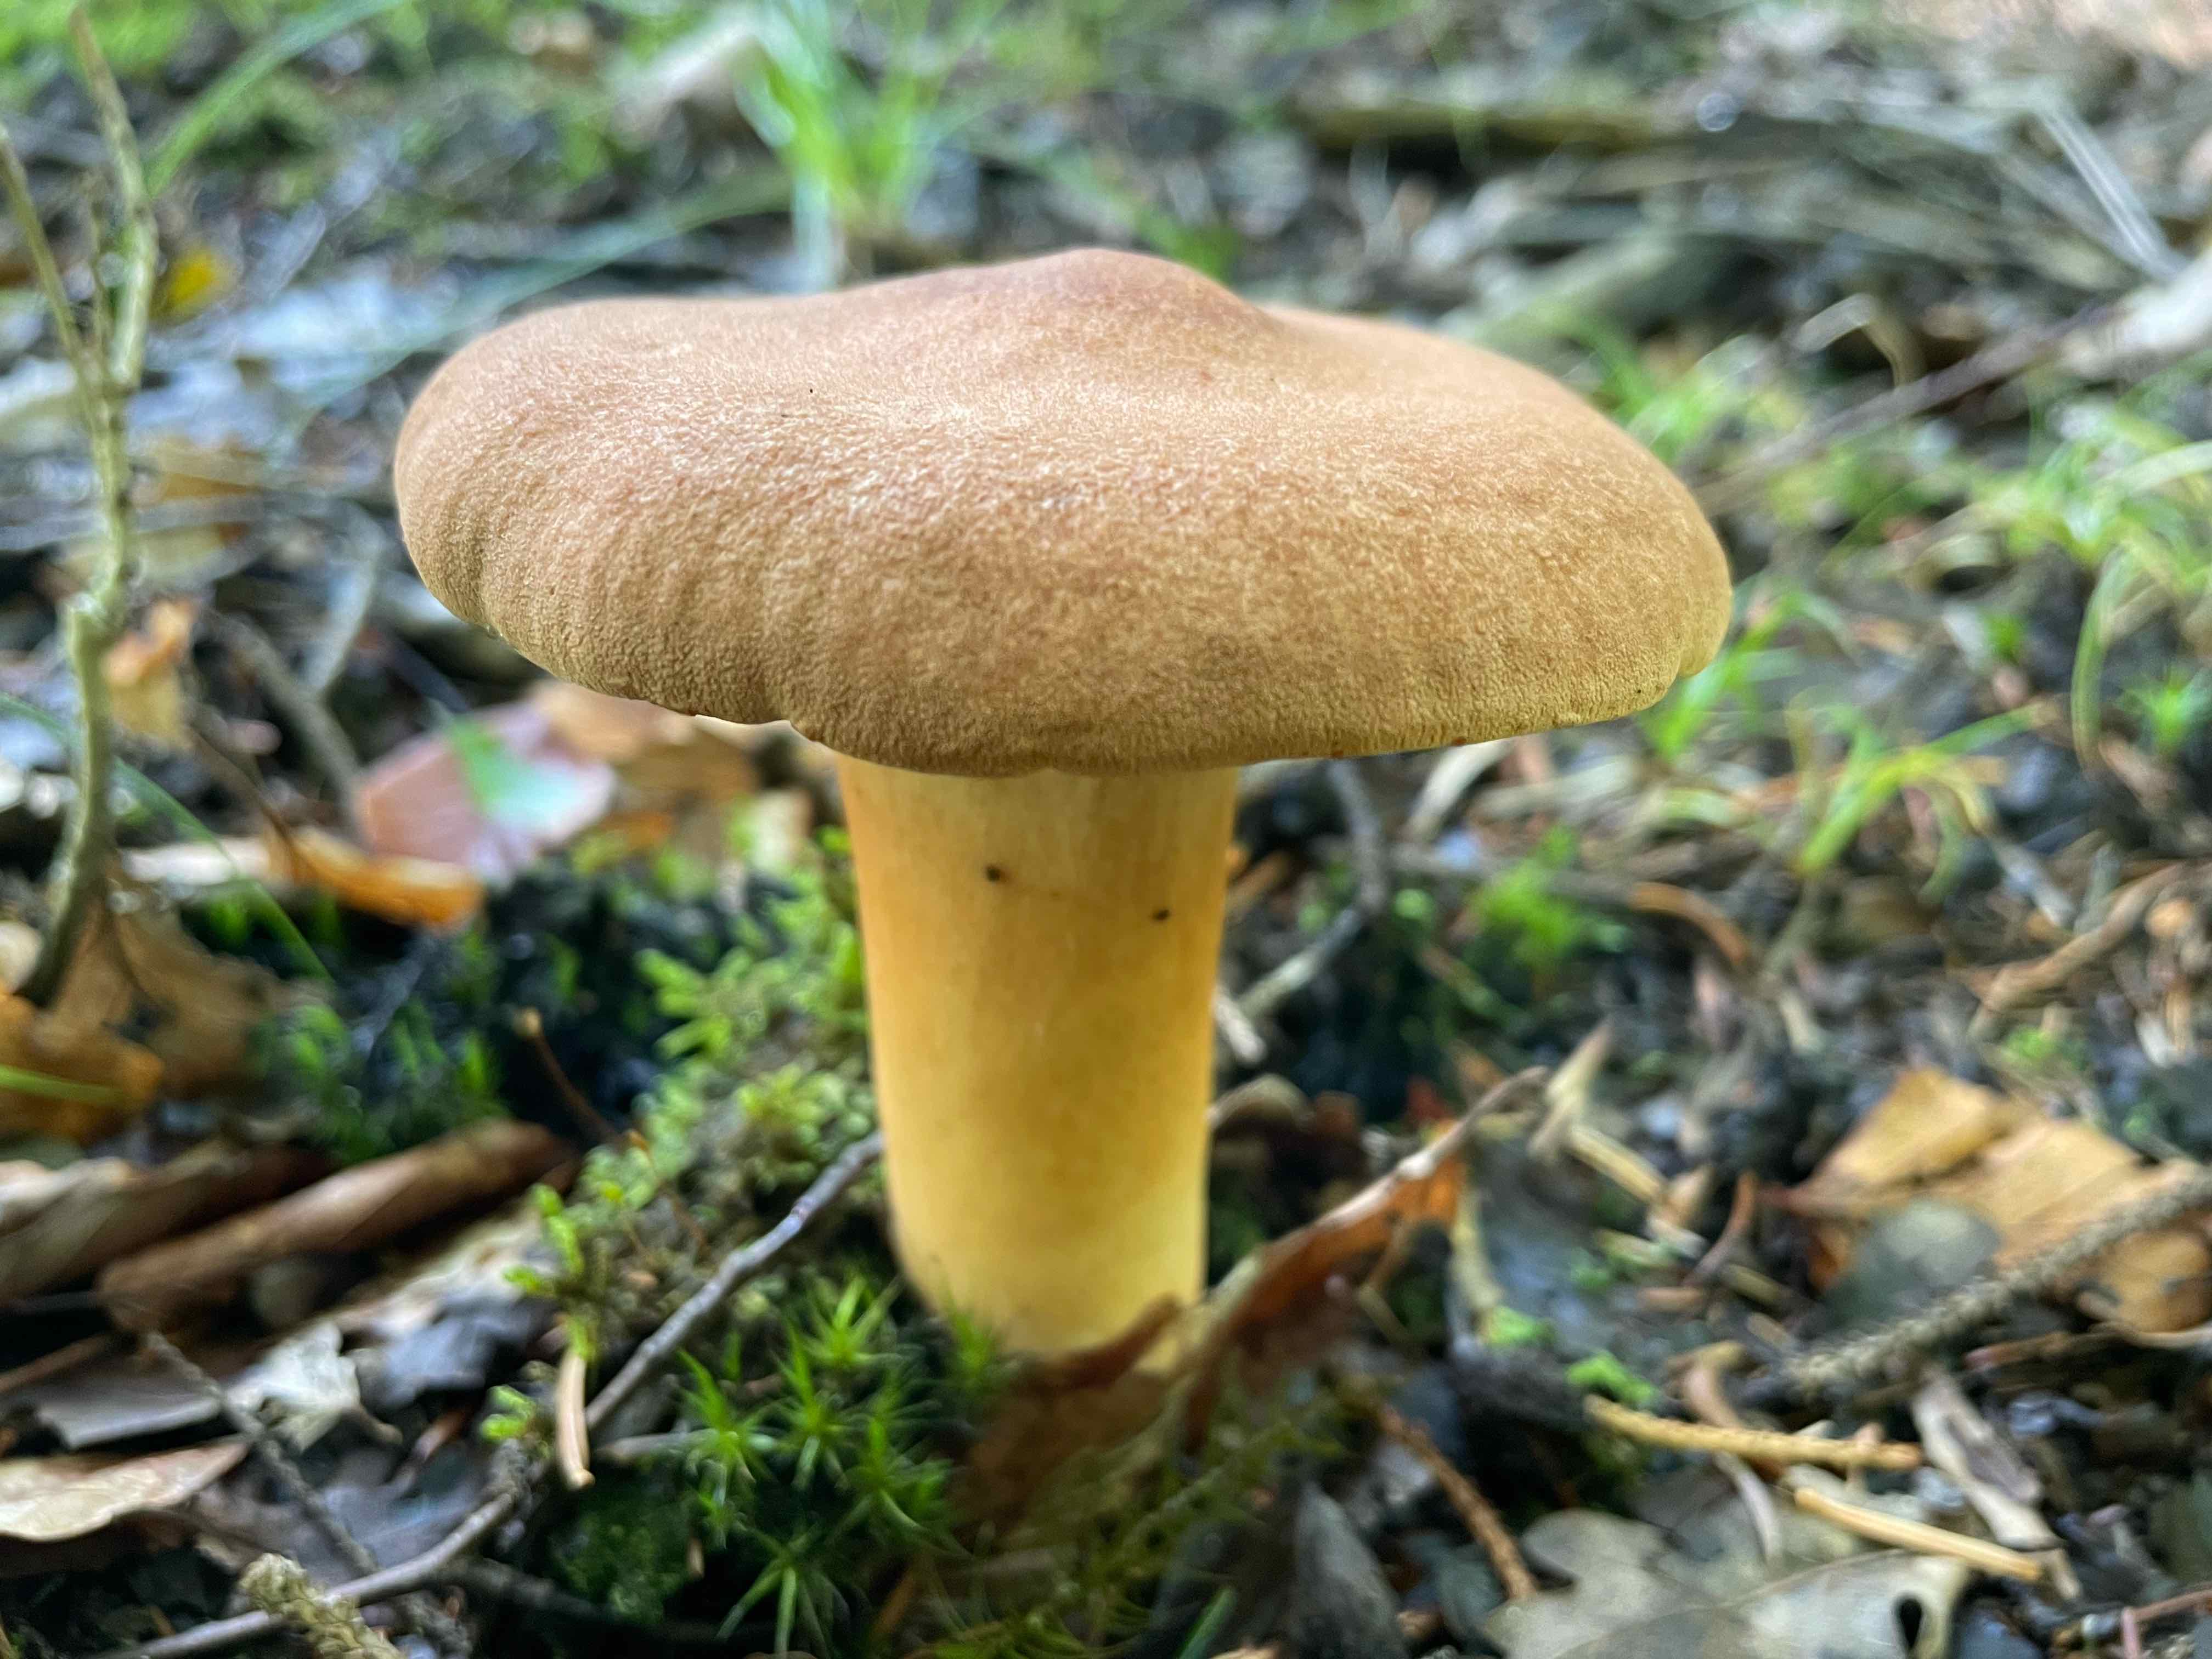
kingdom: Fungi
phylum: Basidiomycota
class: Agaricomycetes
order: Russulales
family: Russulaceae
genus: Lactarius
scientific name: Lactarius helvus
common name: mose-mælkehat
